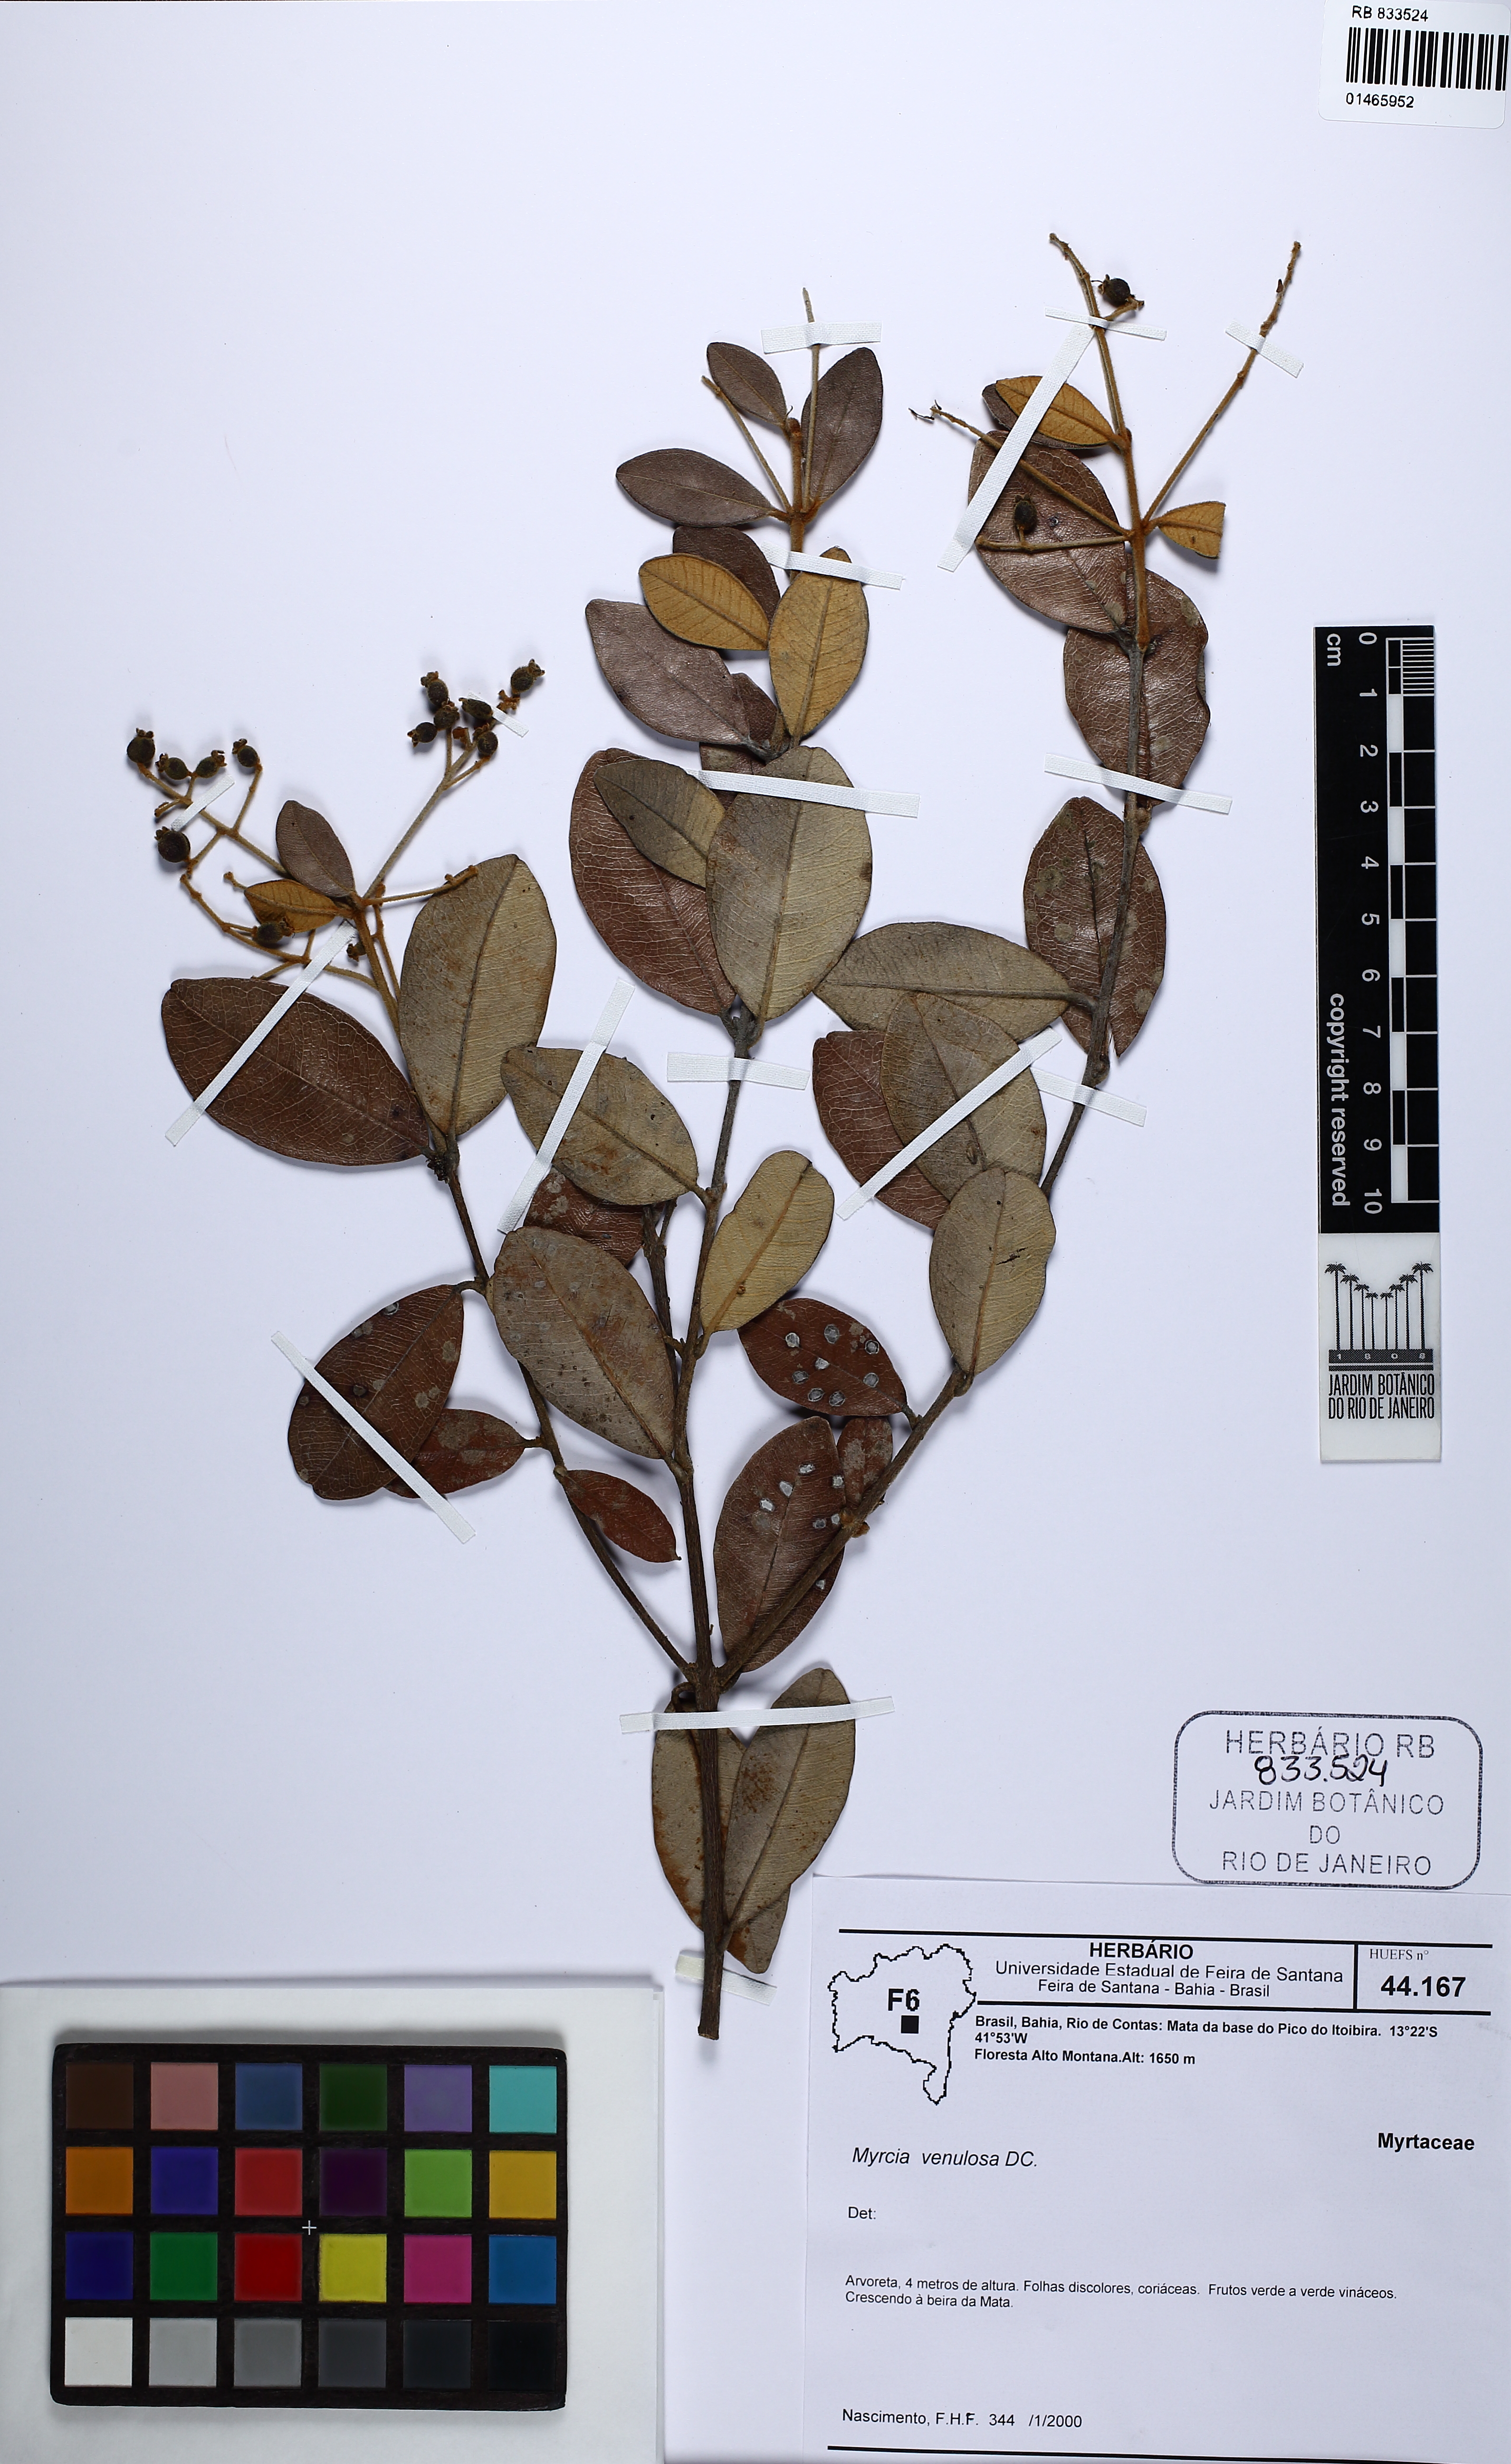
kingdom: Plantae
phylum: Tracheophyta
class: Magnoliopsida
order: Myrtales
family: Myrtaceae
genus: Myrcia
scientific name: Myrcia venulosa
